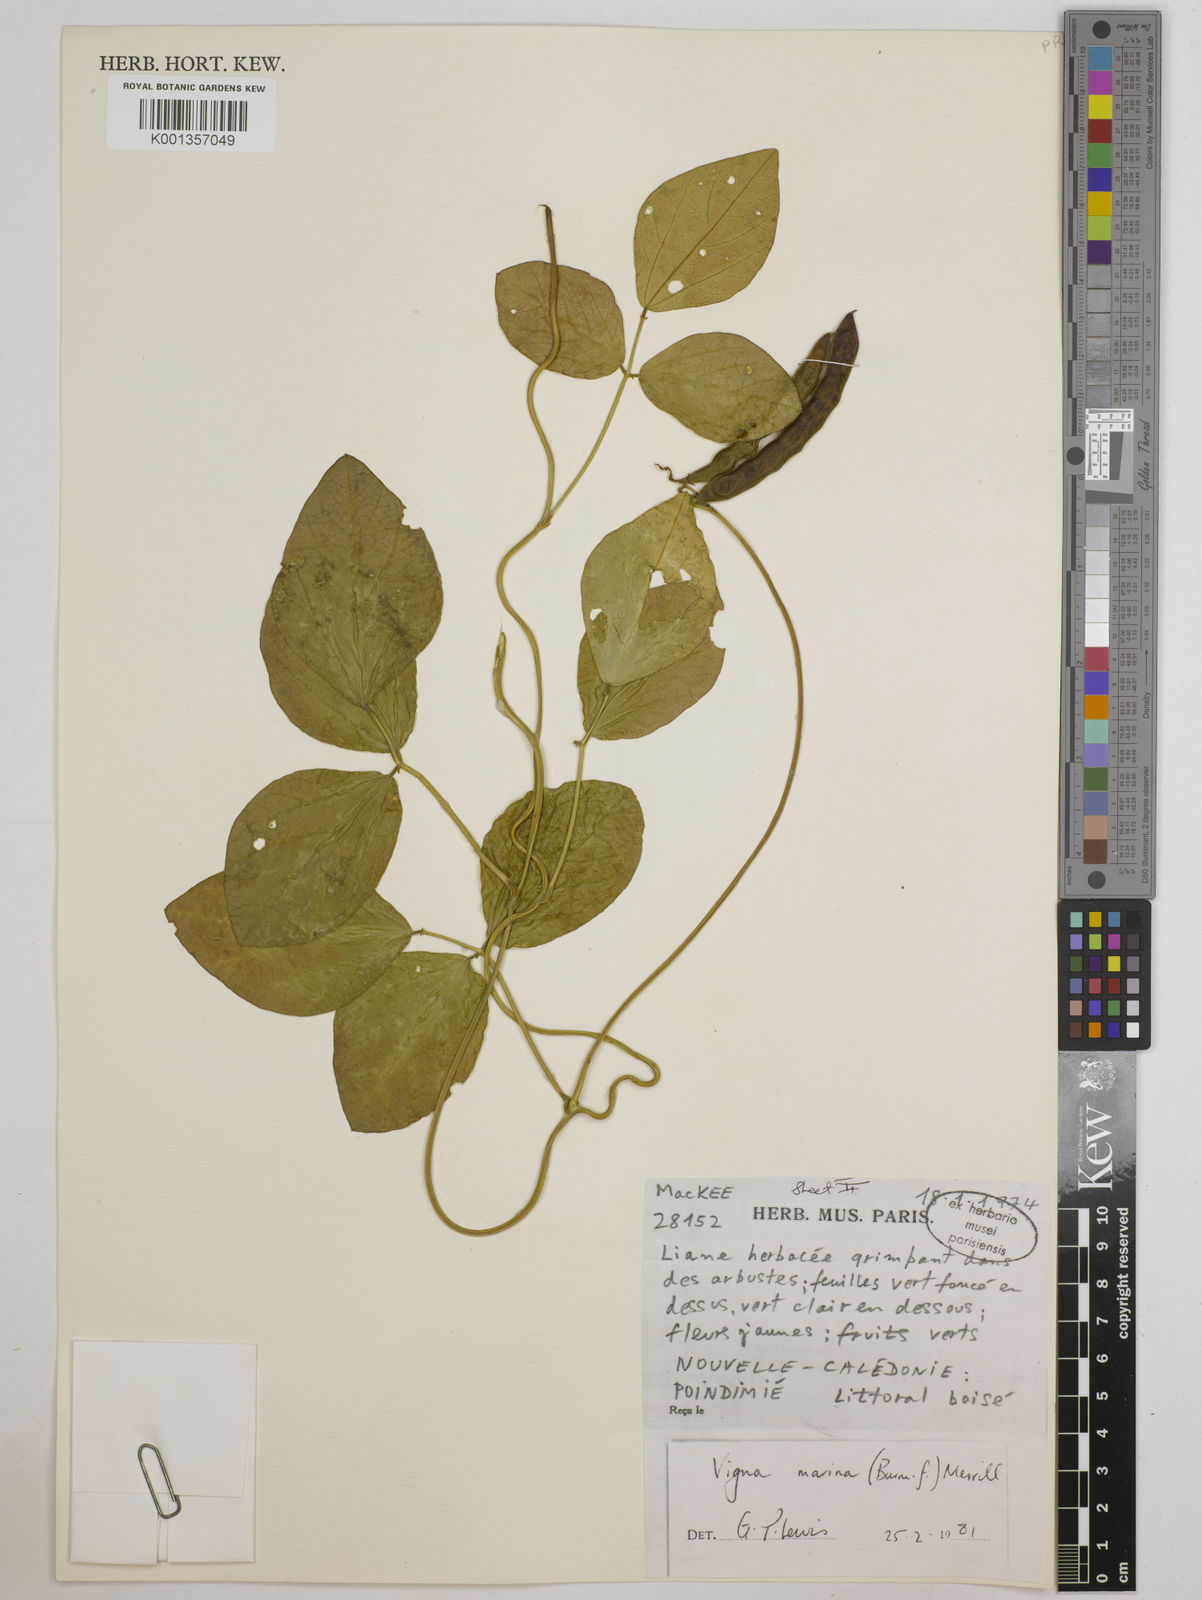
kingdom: Plantae
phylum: Tracheophyta
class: Magnoliopsida
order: Fabales
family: Fabaceae
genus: Vigna
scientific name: Vigna marina
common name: Dune-bean
